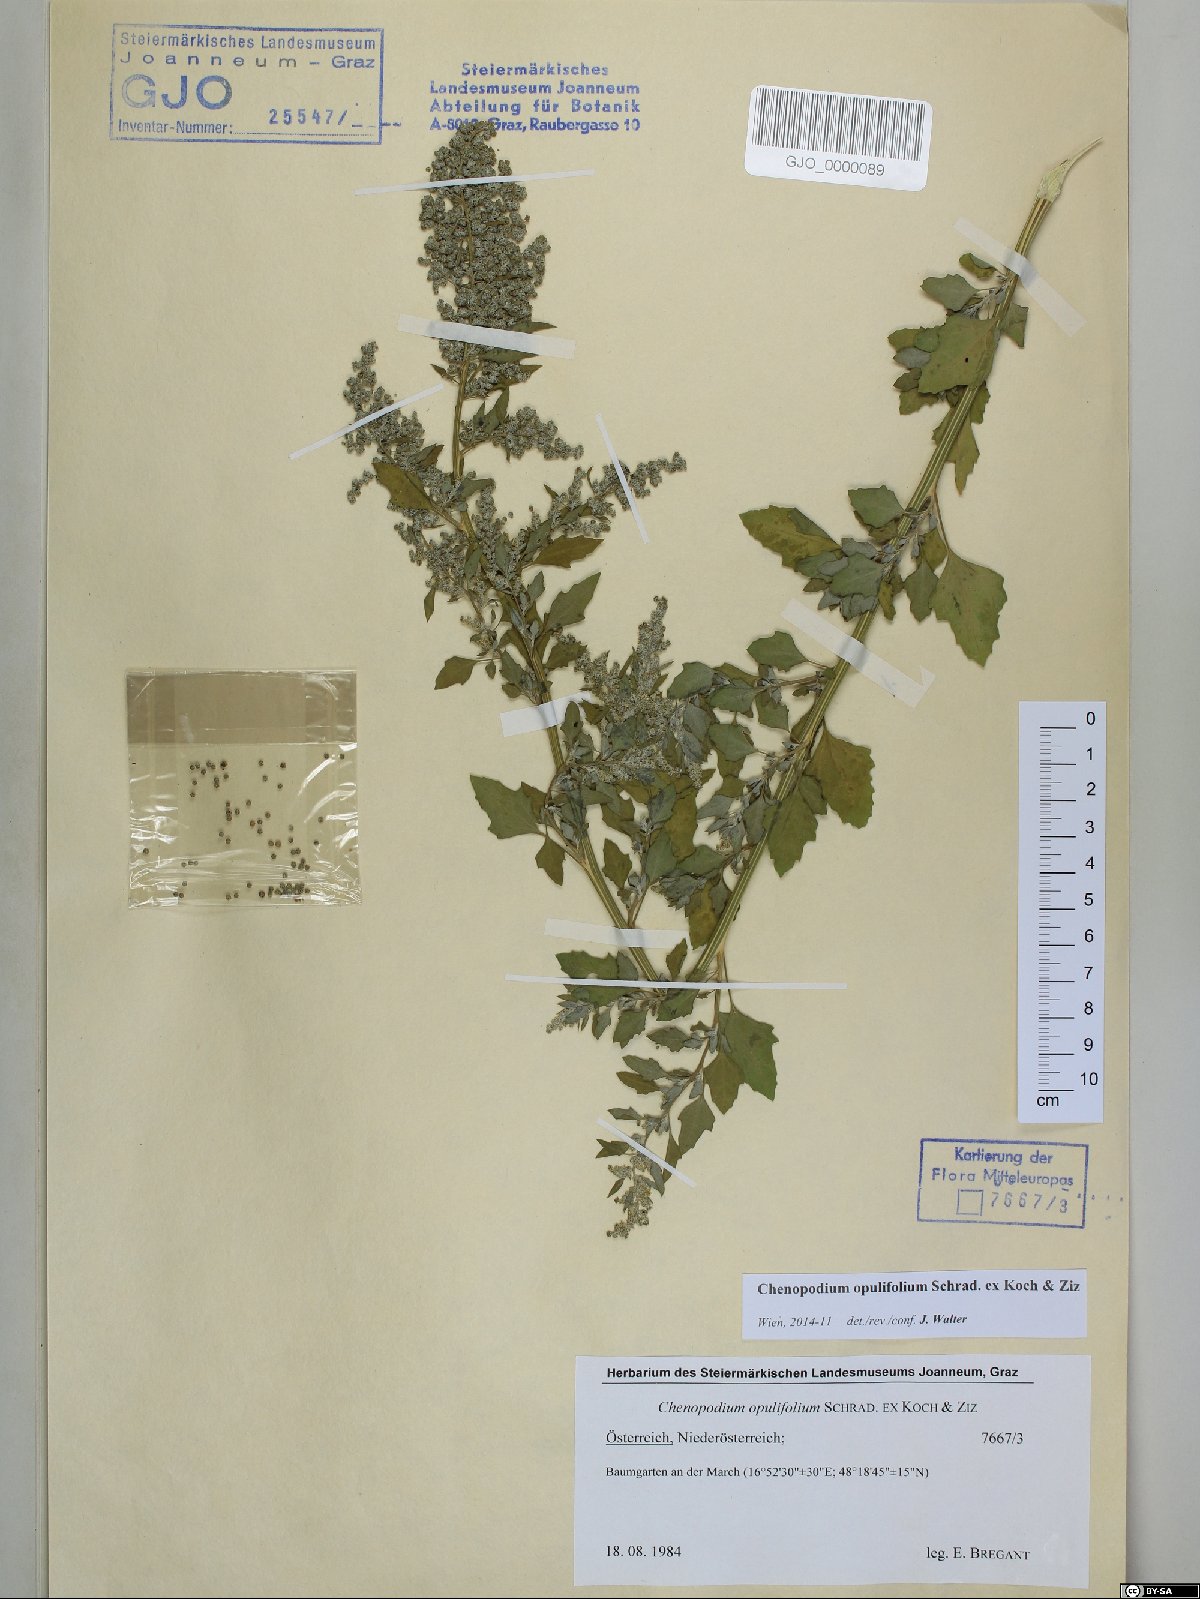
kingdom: Plantae
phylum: Tracheophyta
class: Magnoliopsida
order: Caryophyllales
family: Amaranthaceae
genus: Chenopodium
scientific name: Chenopodium opulifolium
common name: Grey goosefoot
